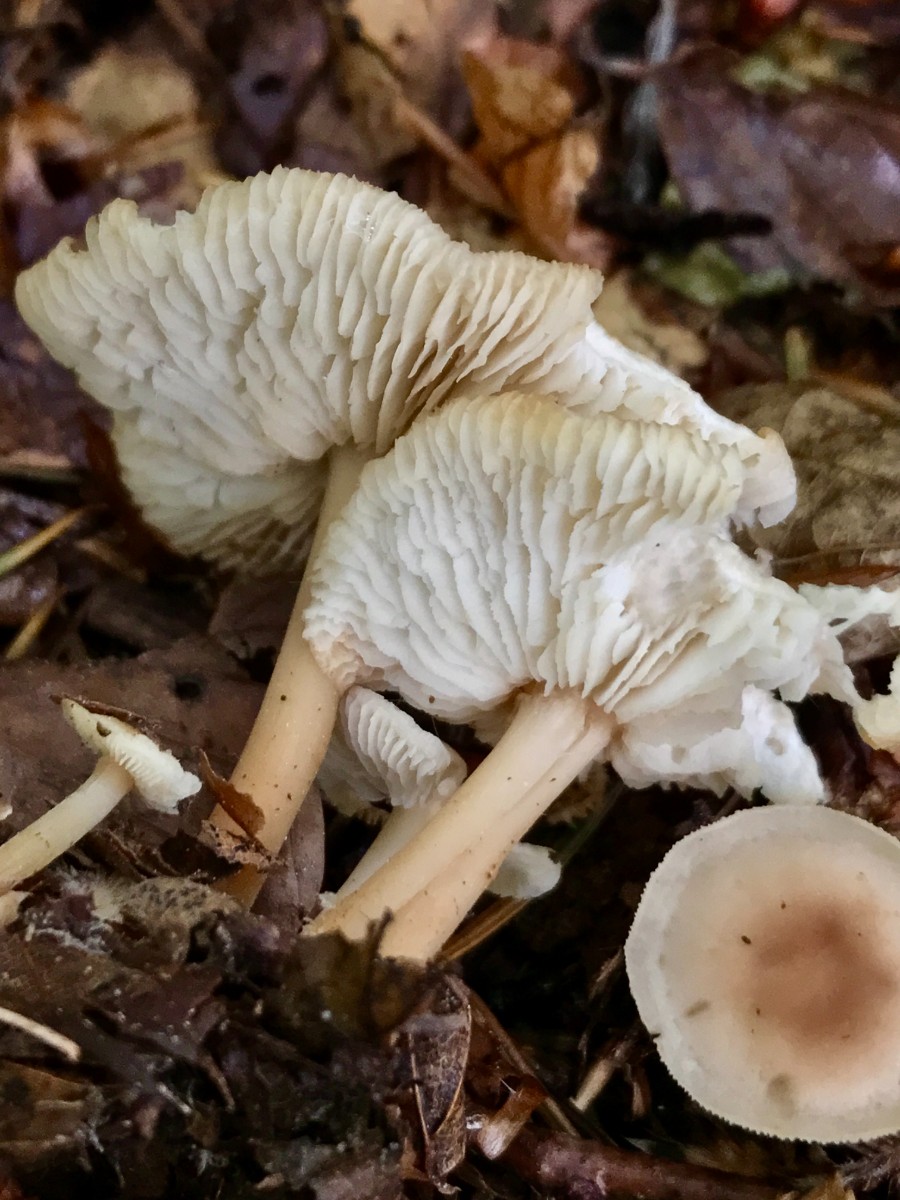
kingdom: Fungi
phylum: Basidiomycota
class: Agaricomycetes
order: Agaricales
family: Omphalotaceae
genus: Gymnopus
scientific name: Gymnopus aquosus
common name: bleg fladhat
